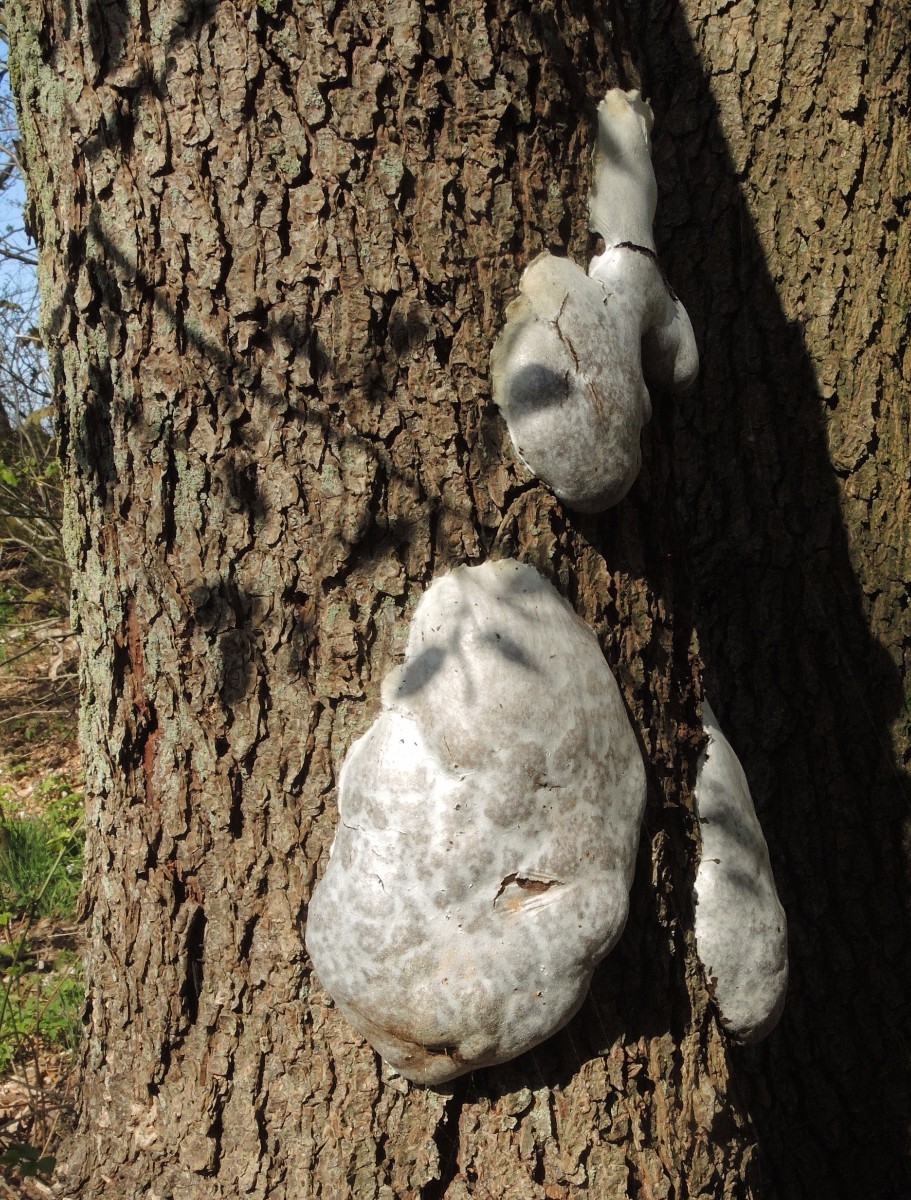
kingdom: Protozoa
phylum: Mycetozoa
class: Myxomycetes
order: Cribrariales
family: Tubiferaceae
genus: Reticularia
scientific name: Reticularia lycoperdon
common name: skinnende støvpude
